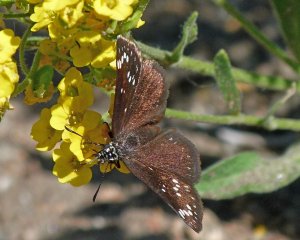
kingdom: Animalia
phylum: Arthropoda
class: Insecta
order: Lepidoptera
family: Hesperiidae
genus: Pholisora
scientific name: Pholisora catullus
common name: Common Sootywing
